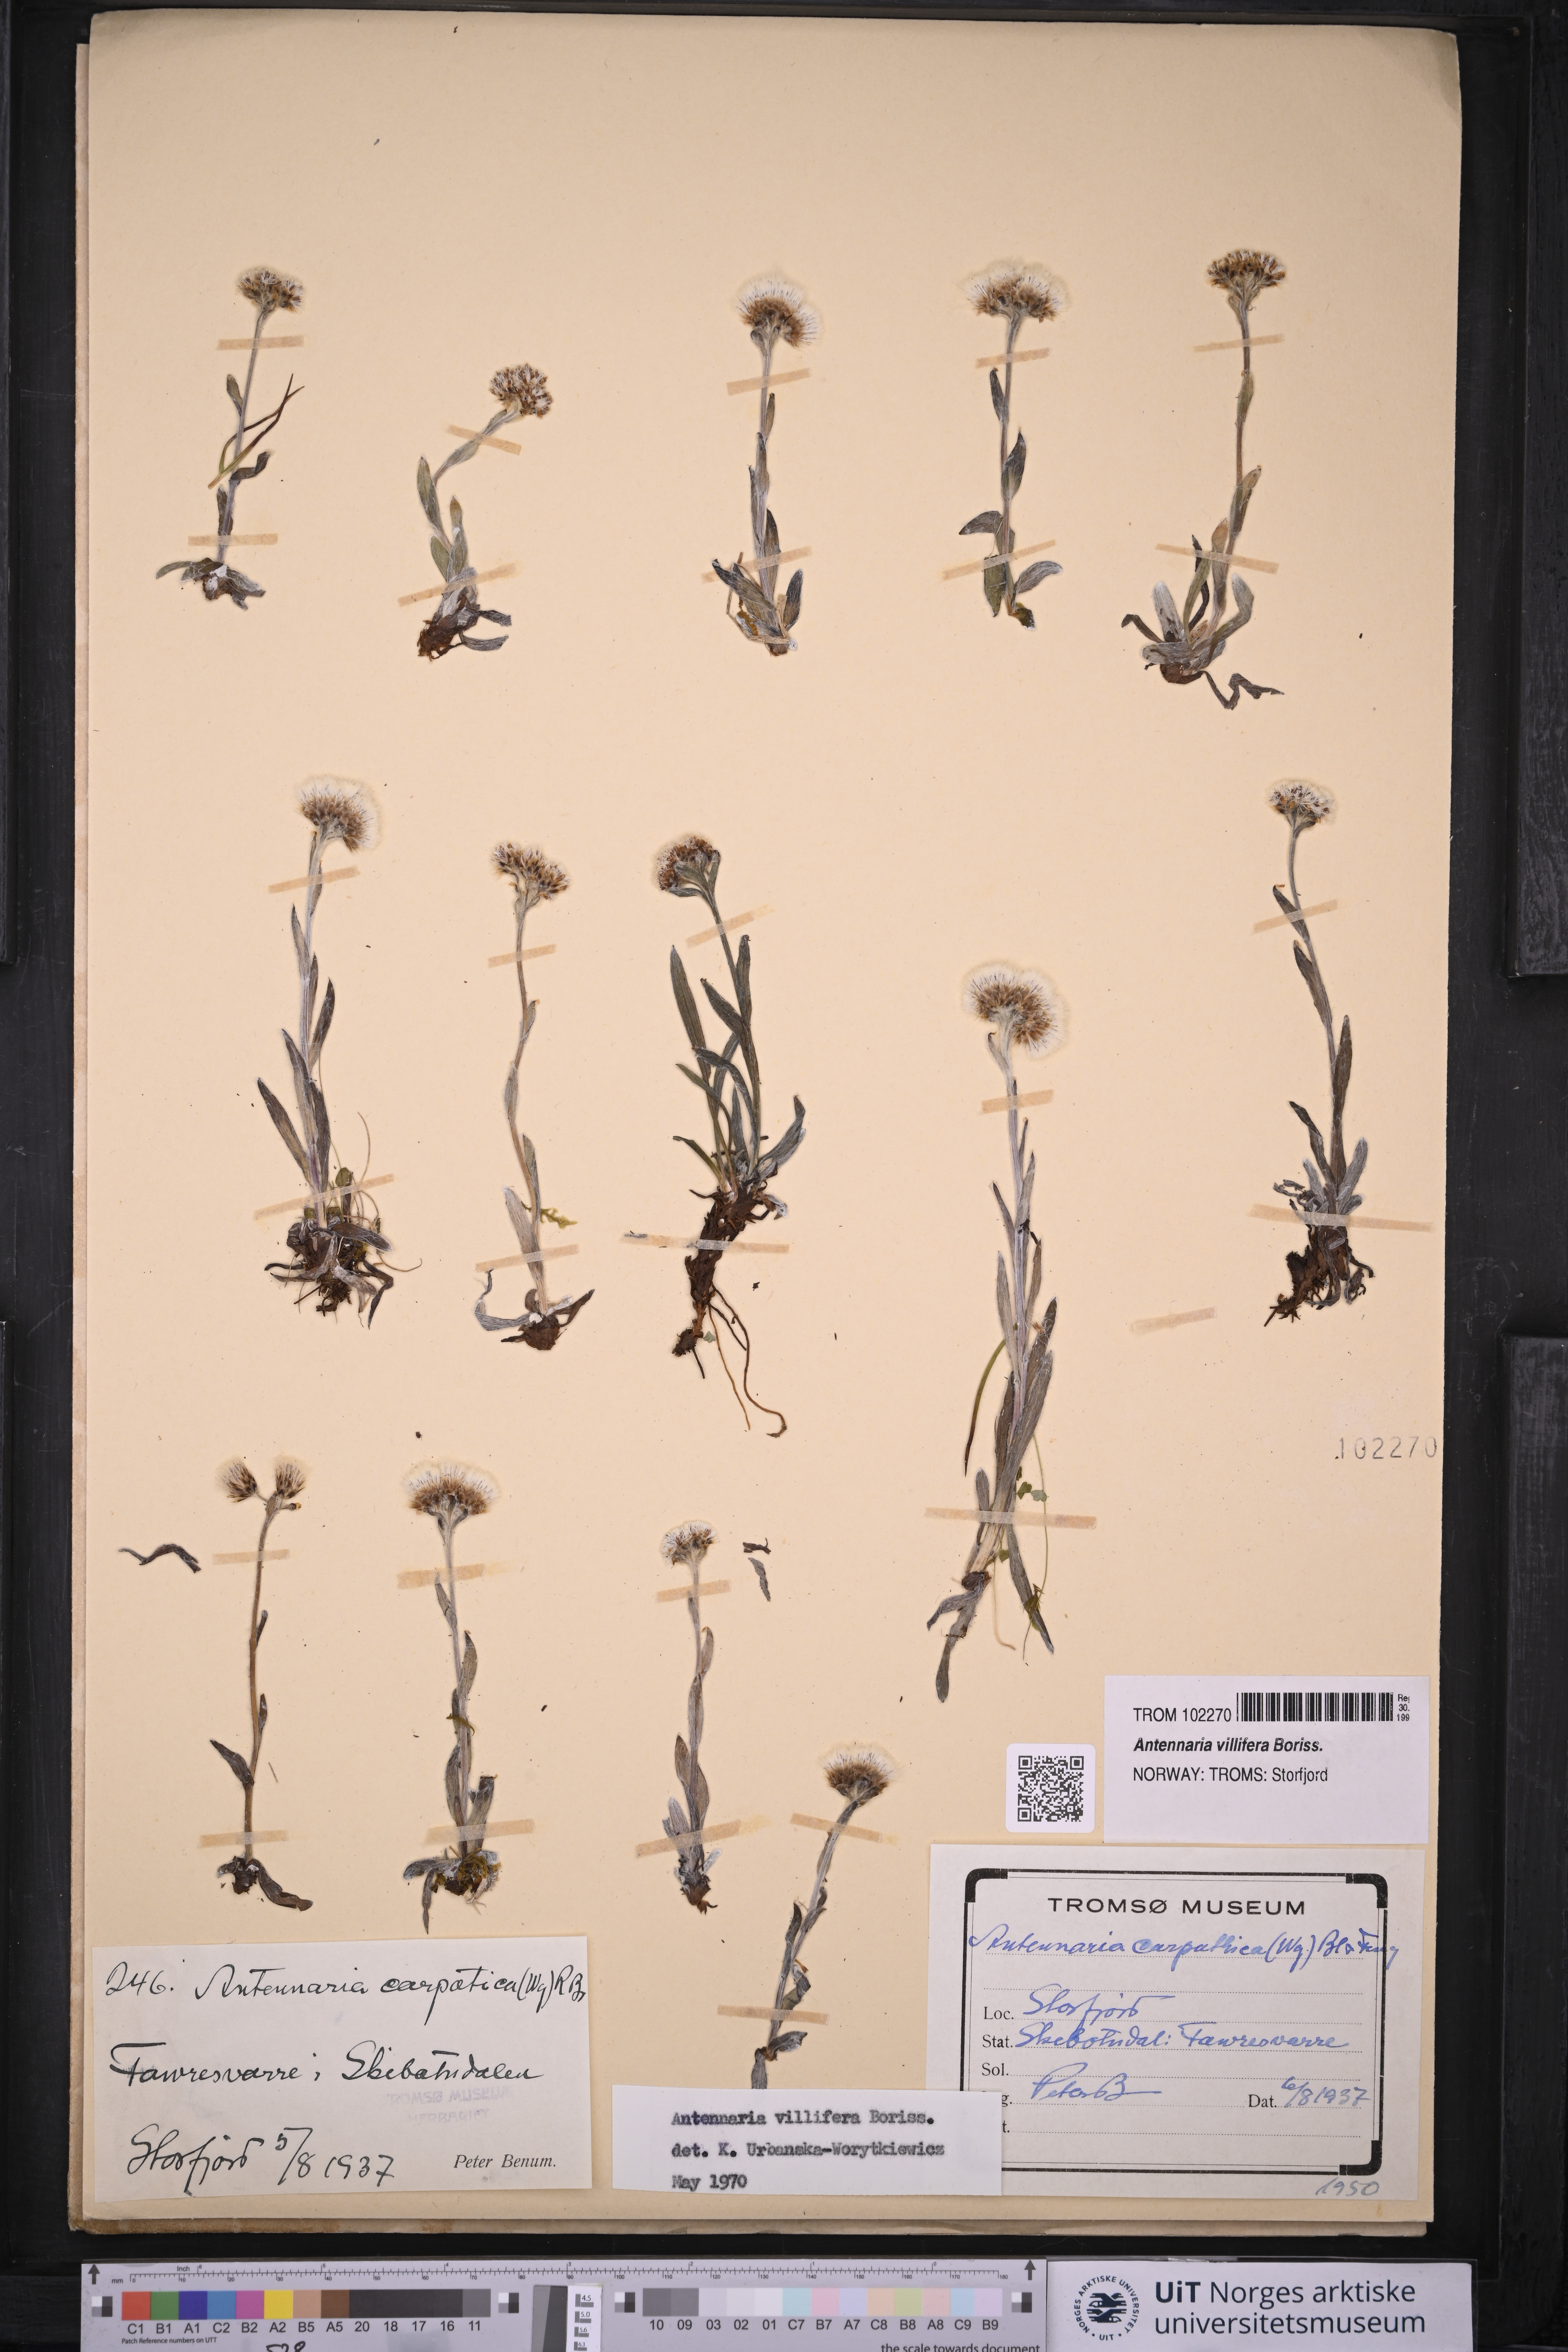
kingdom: Plantae
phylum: Tracheophyta
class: Magnoliopsida
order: Asterales
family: Asteraceae
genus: Antennaria
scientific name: Antennaria lanata
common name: Woolly pussytoes
